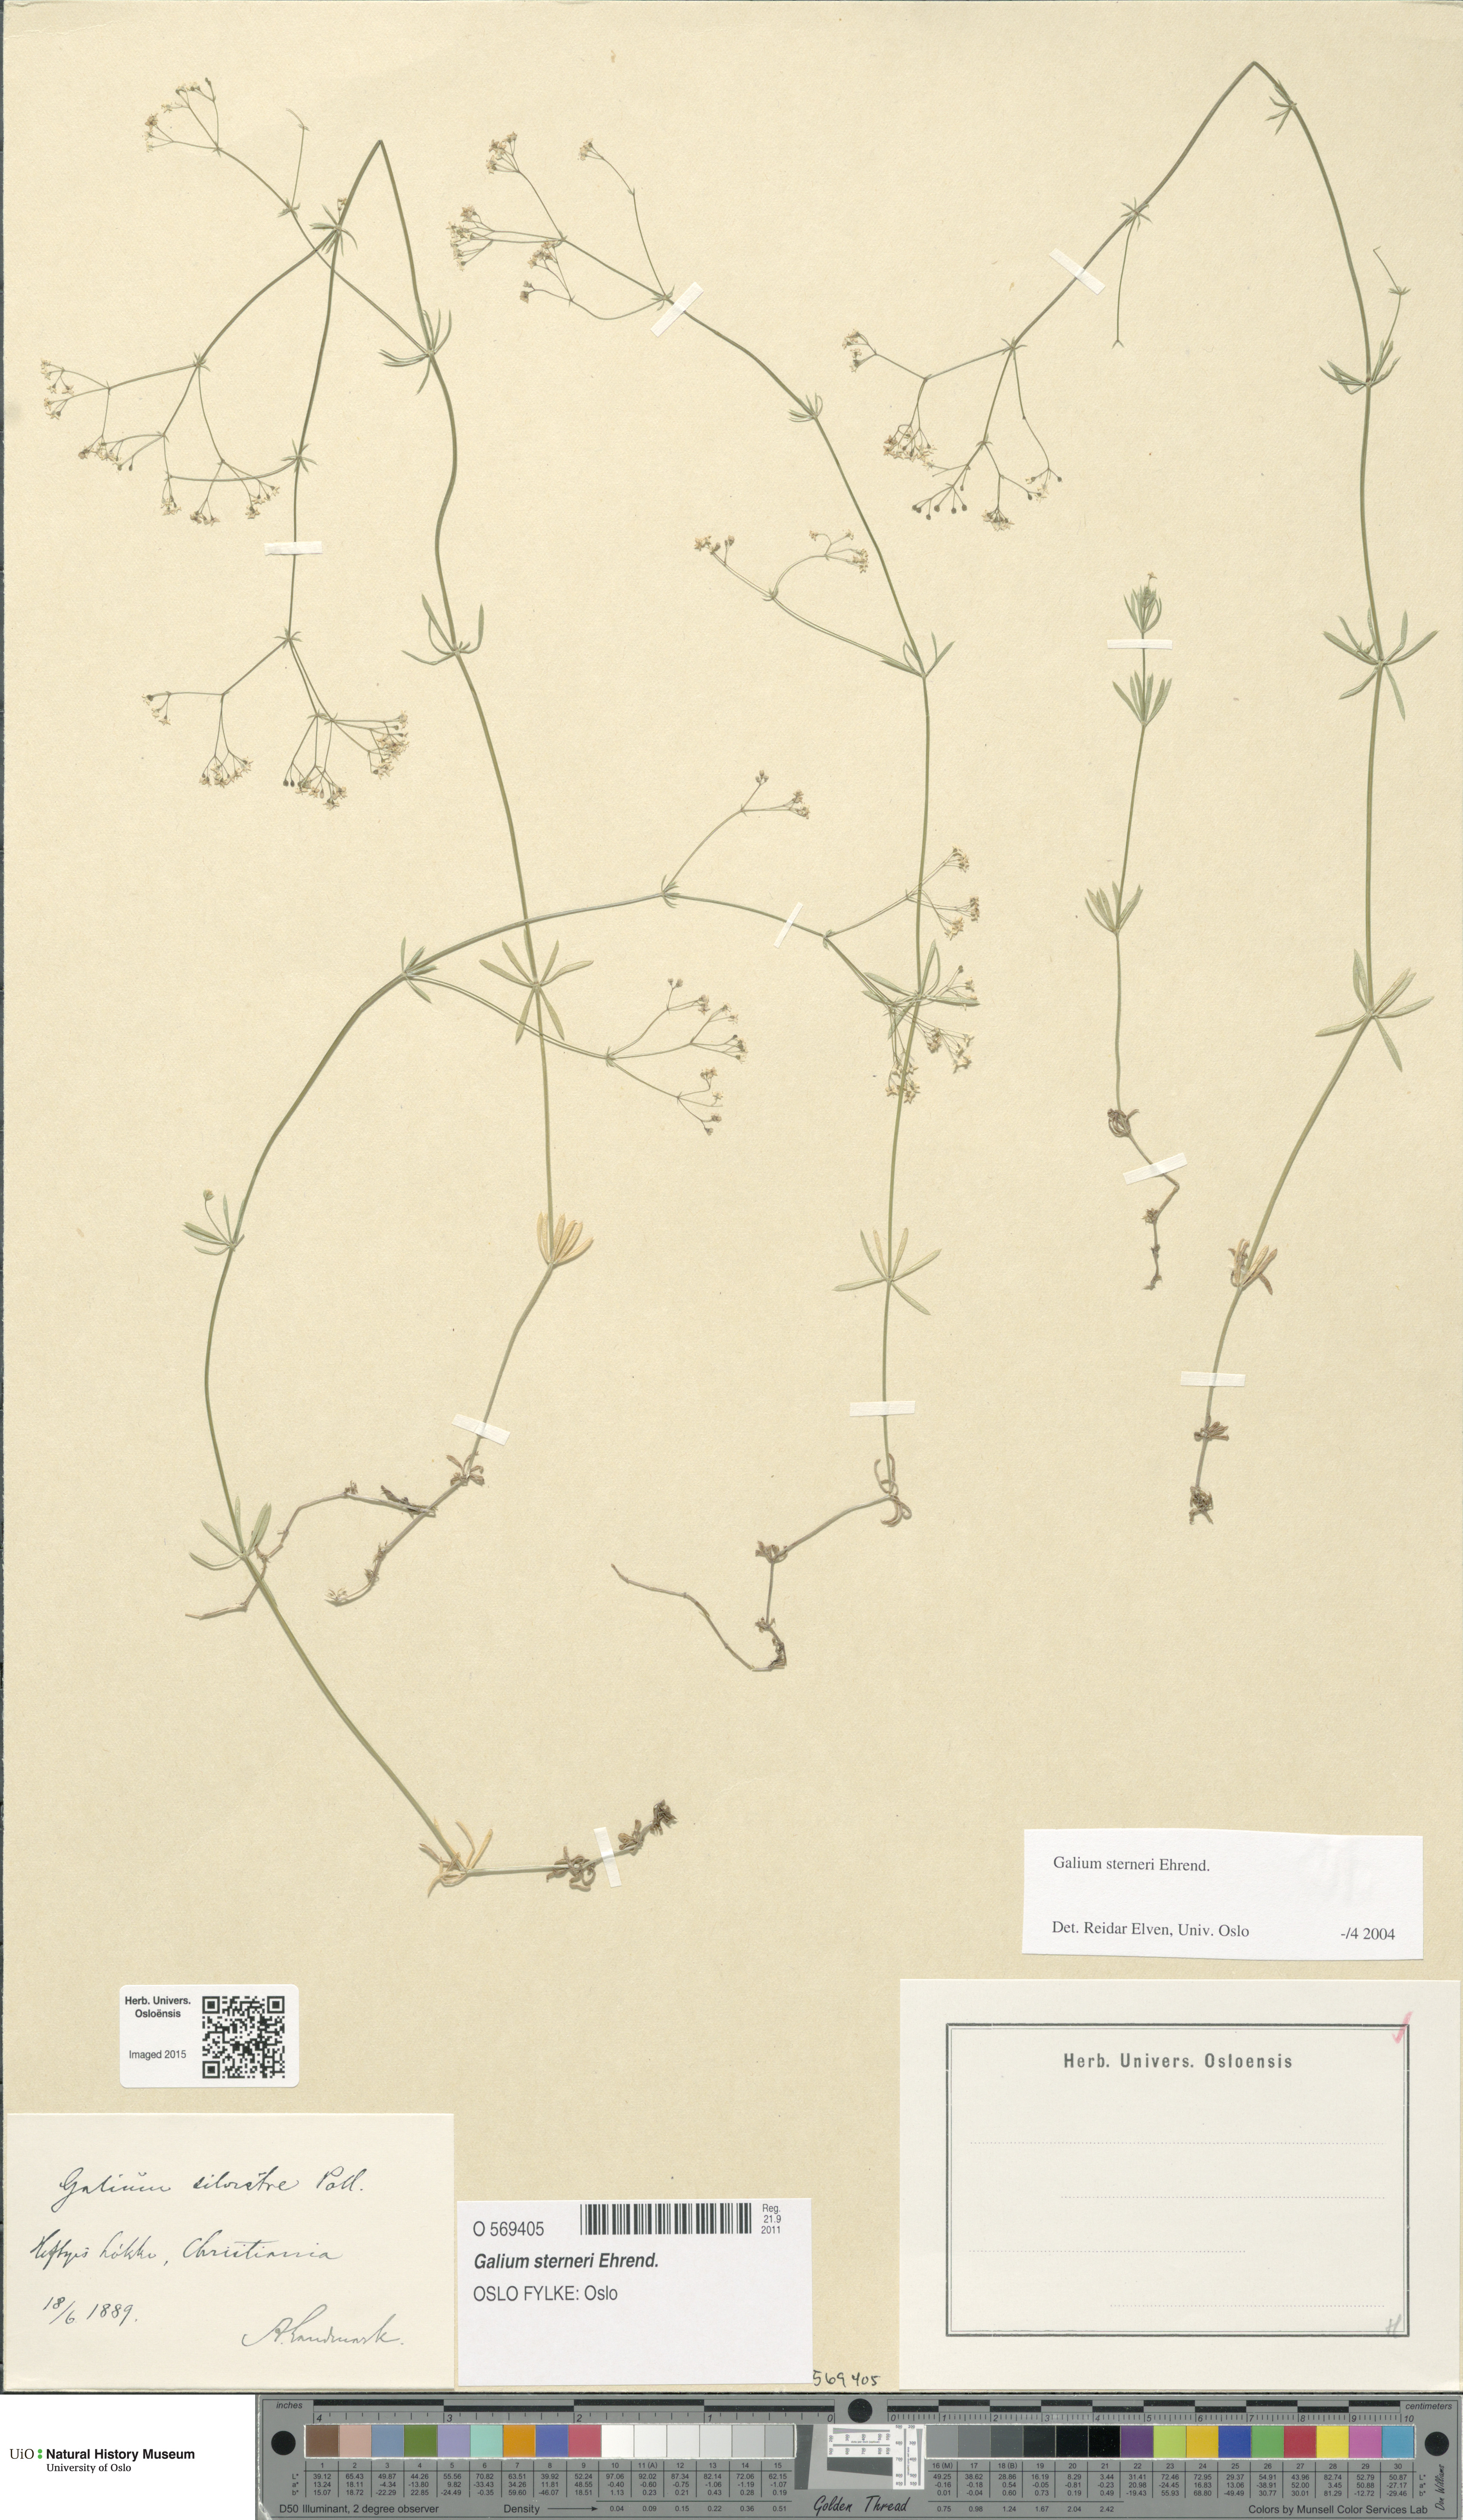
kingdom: Plantae
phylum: Tracheophyta
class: Magnoliopsida
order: Gentianales
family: Rubiaceae
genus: Galium
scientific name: Galium sterneri
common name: Limestone bedstraw
